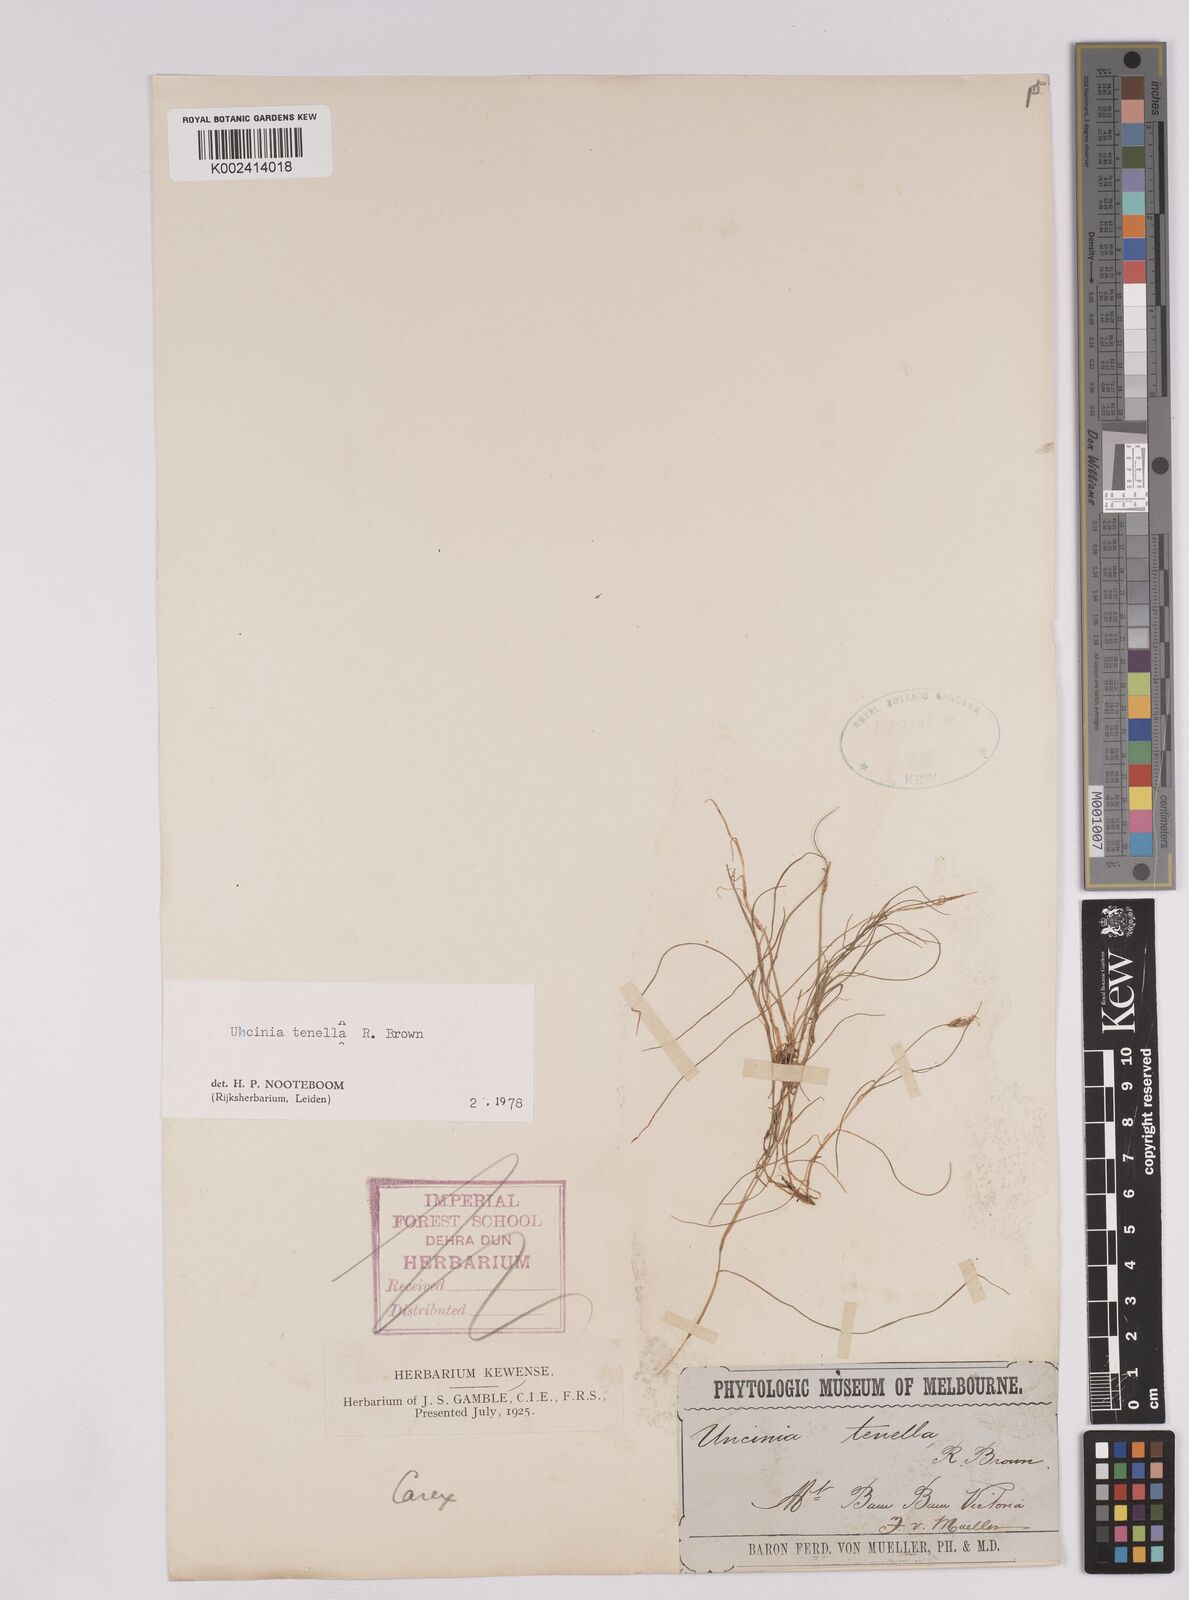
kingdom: Plantae
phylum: Tracheophyta
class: Liliopsida
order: Poales
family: Cyperaceae
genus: Carex
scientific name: Carex austrotenella
